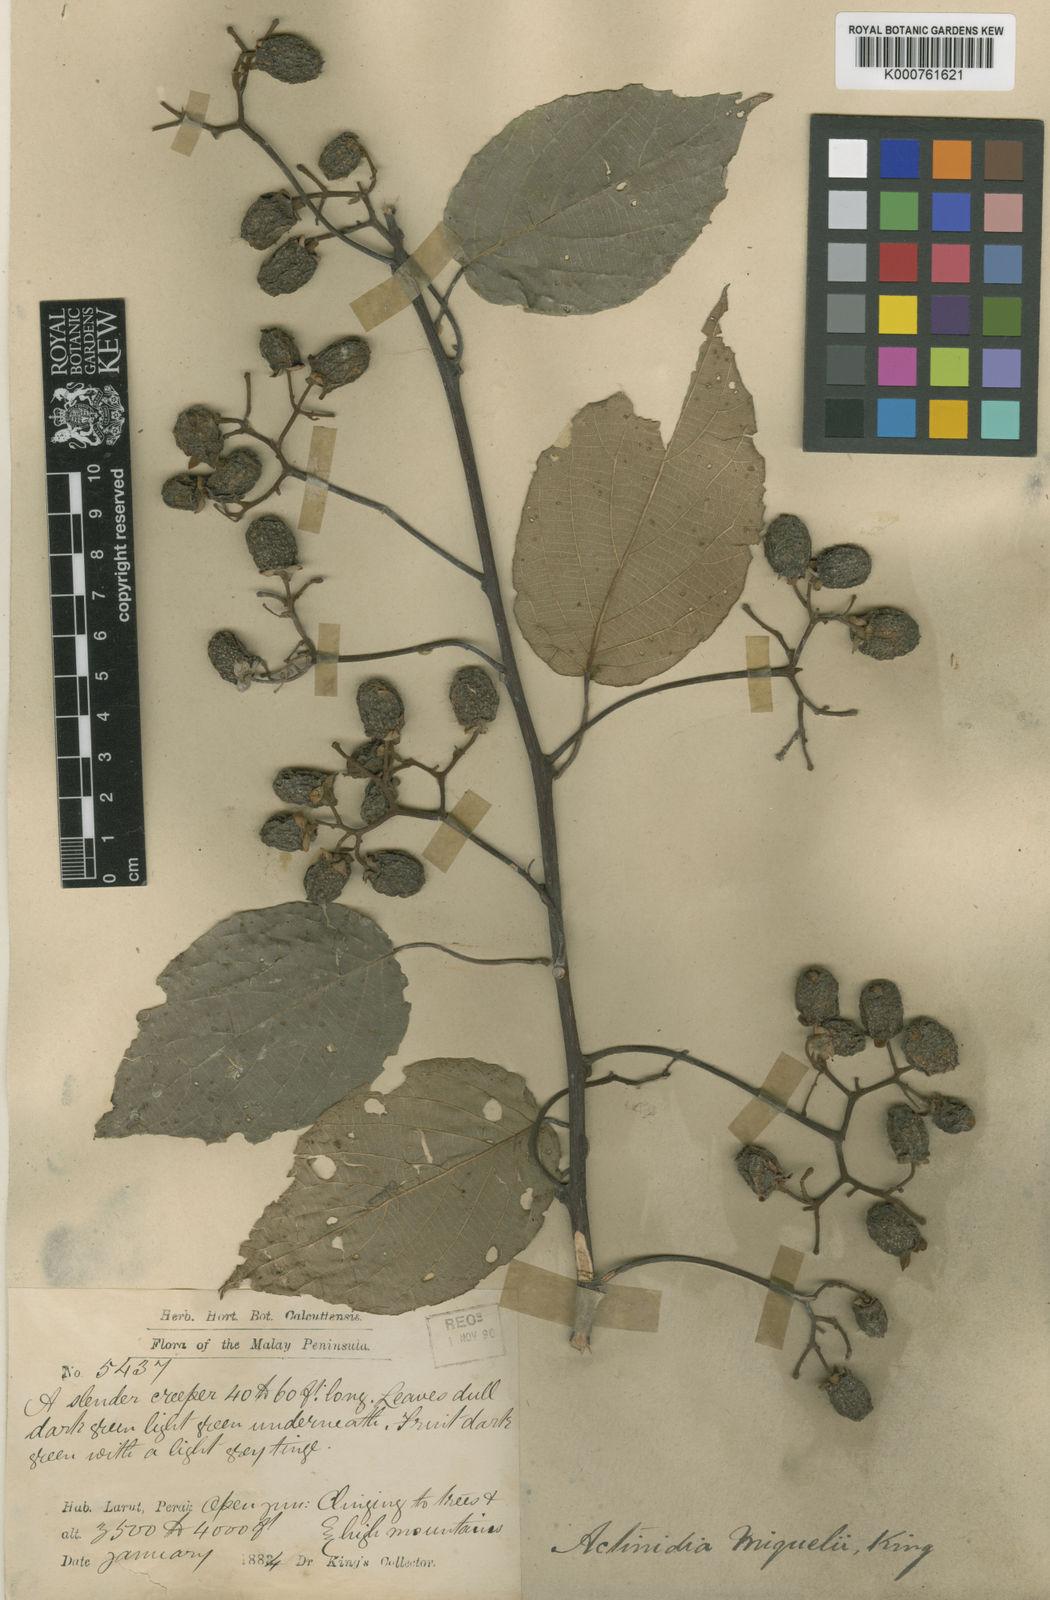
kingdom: Plantae
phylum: Tracheophyta
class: Magnoliopsida
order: Ericales
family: Actinidiaceae
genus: Actinidia
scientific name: Actinidia latifolia
